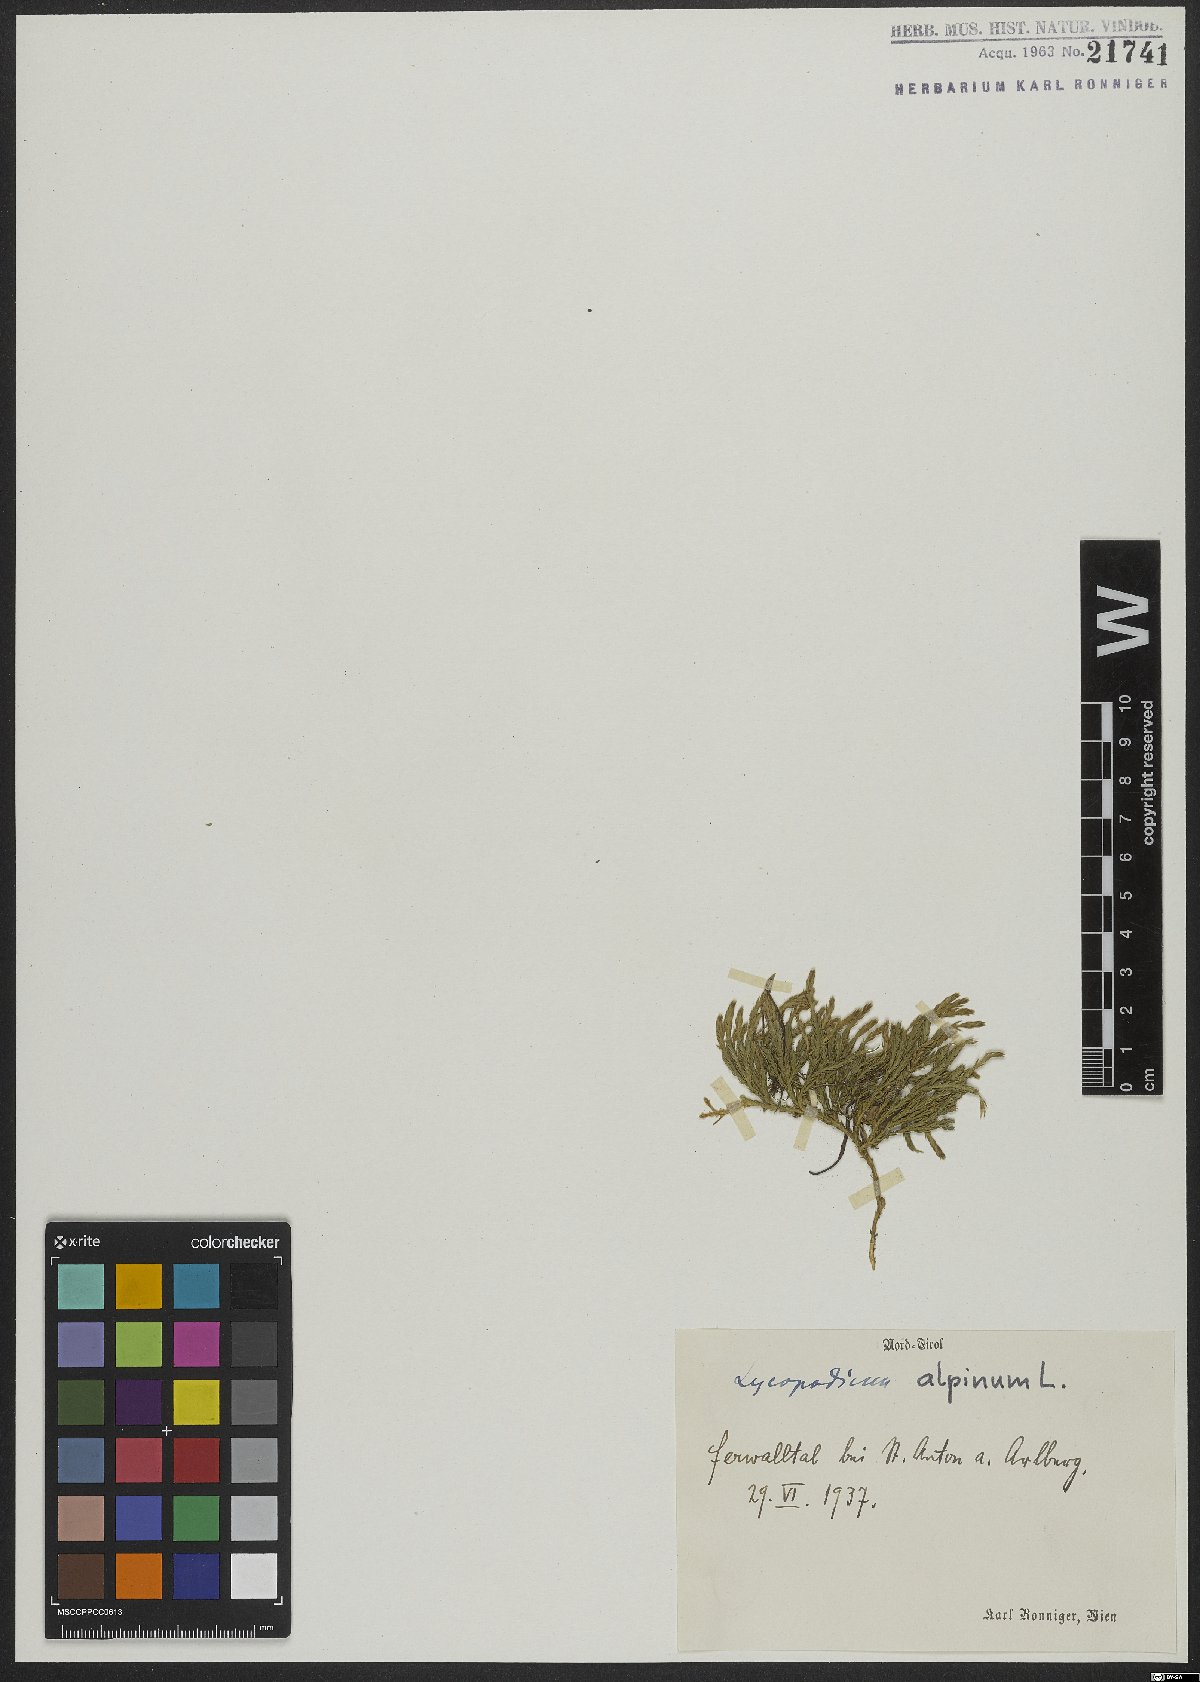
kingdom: Plantae
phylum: Tracheophyta
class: Lycopodiopsida
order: Lycopodiales
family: Lycopodiaceae
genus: Diphasiastrum
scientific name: Diphasiastrum alpinum
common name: Alpine clubmoss
